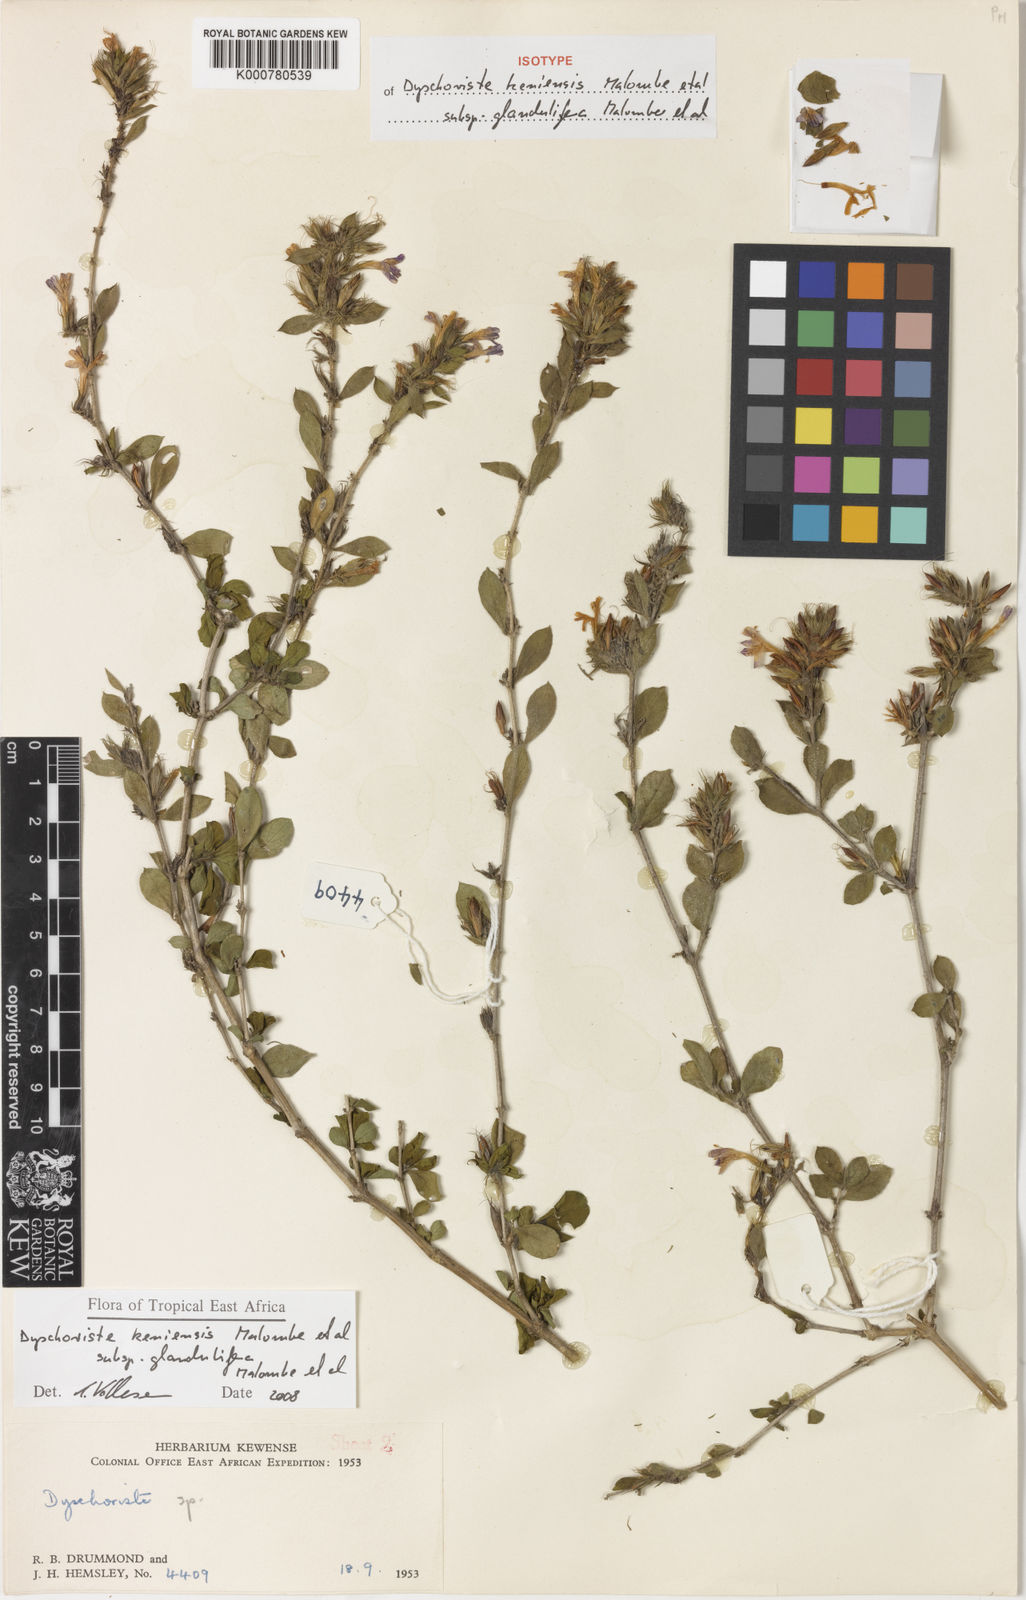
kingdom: Plantae
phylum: Tracheophyta
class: Magnoliopsida
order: Lamiales
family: Acanthaceae
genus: Dyschoriste
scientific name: Dyschoriste
